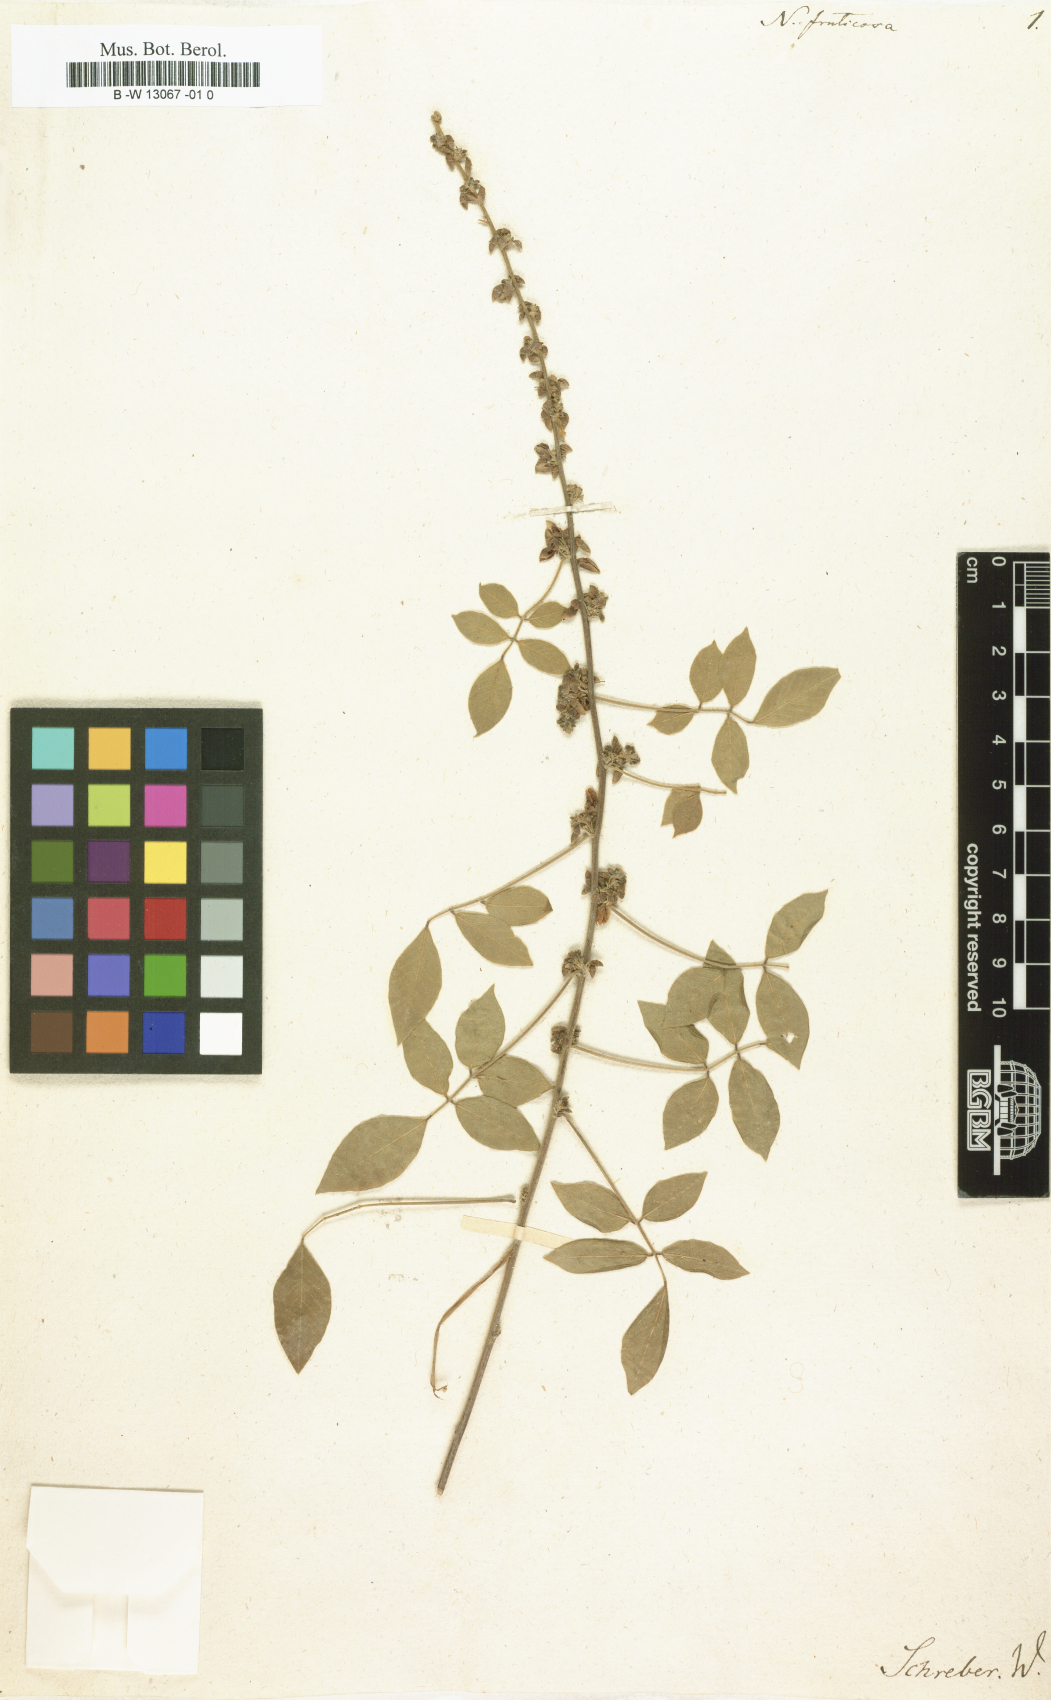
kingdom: Plantae
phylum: Tracheophyta
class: Magnoliopsida
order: Fabales
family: Fabaceae
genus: Nissolia
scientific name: Nissolia fruticosa
